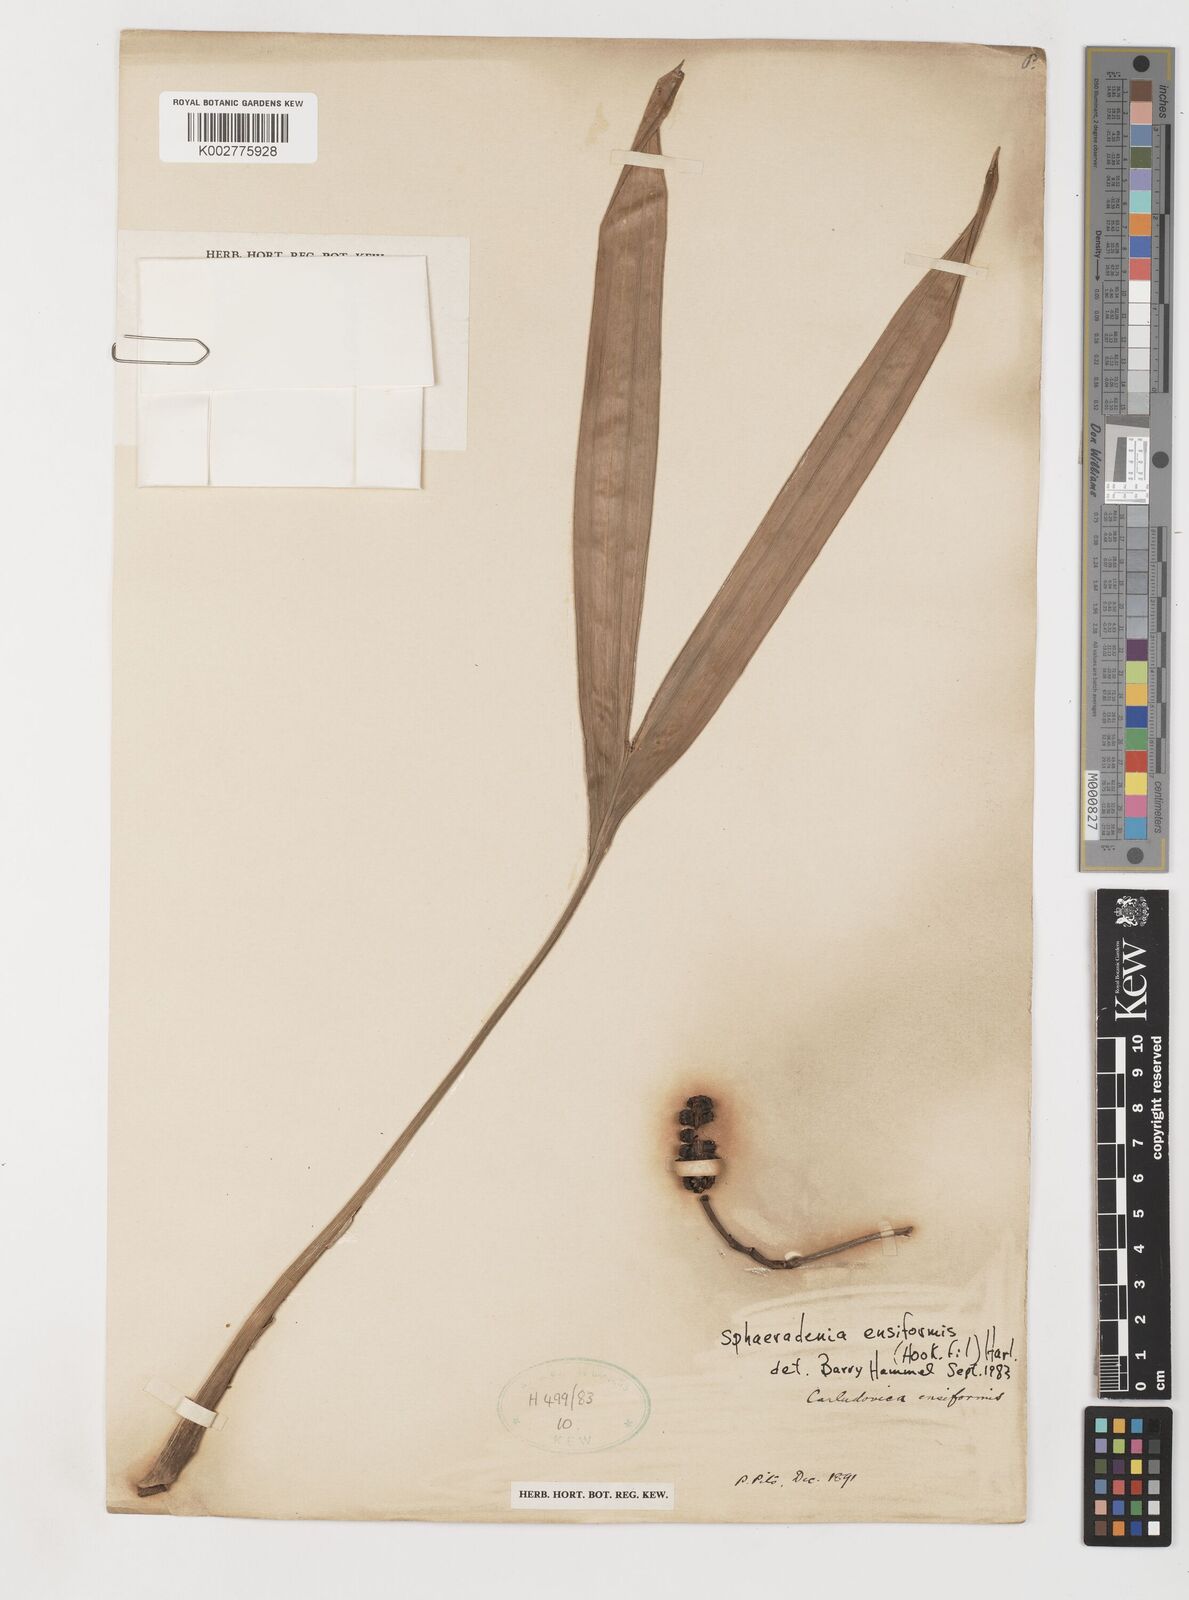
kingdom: Plantae
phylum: Tracheophyta
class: Liliopsida
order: Pandanales
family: Cyclanthaceae
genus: Chorigyne
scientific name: Chorigyne ensiformis
